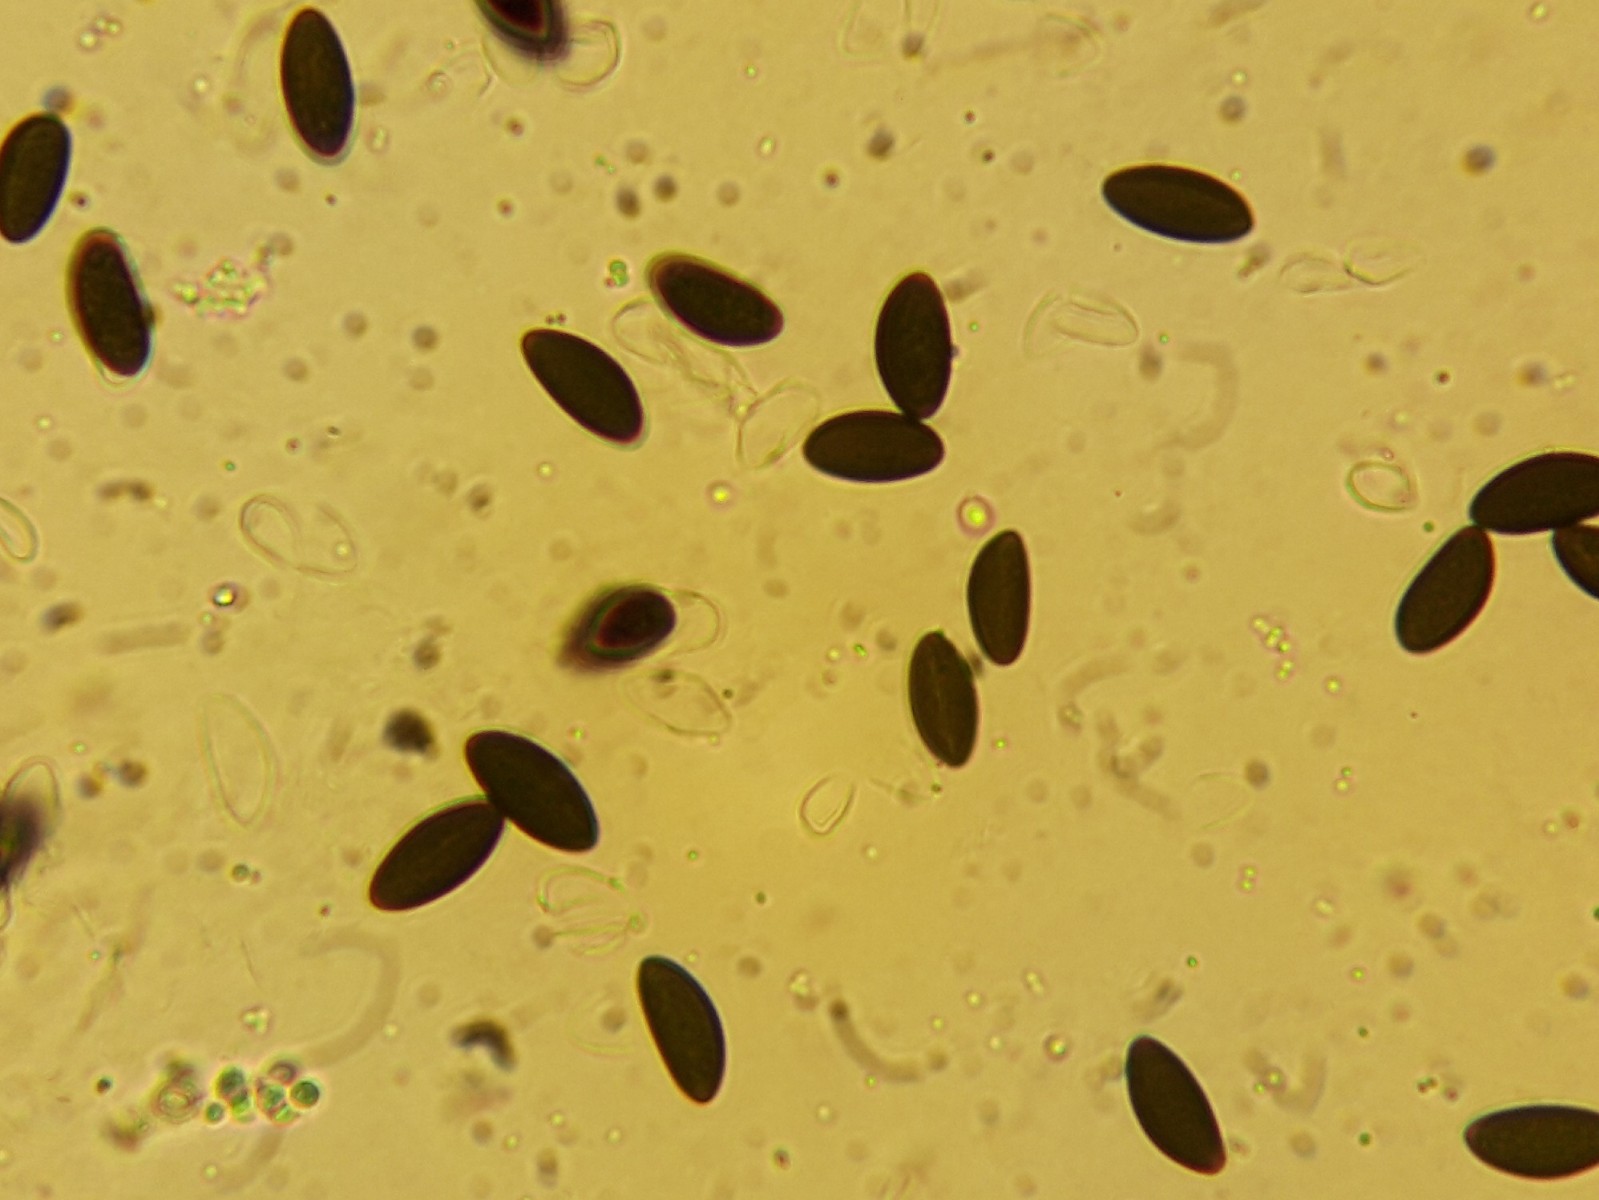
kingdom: Fungi
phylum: Ascomycota
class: Sordariomycetes
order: Xylariales
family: Hypoxylaceae
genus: Daldinia
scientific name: Daldinia concentrica
